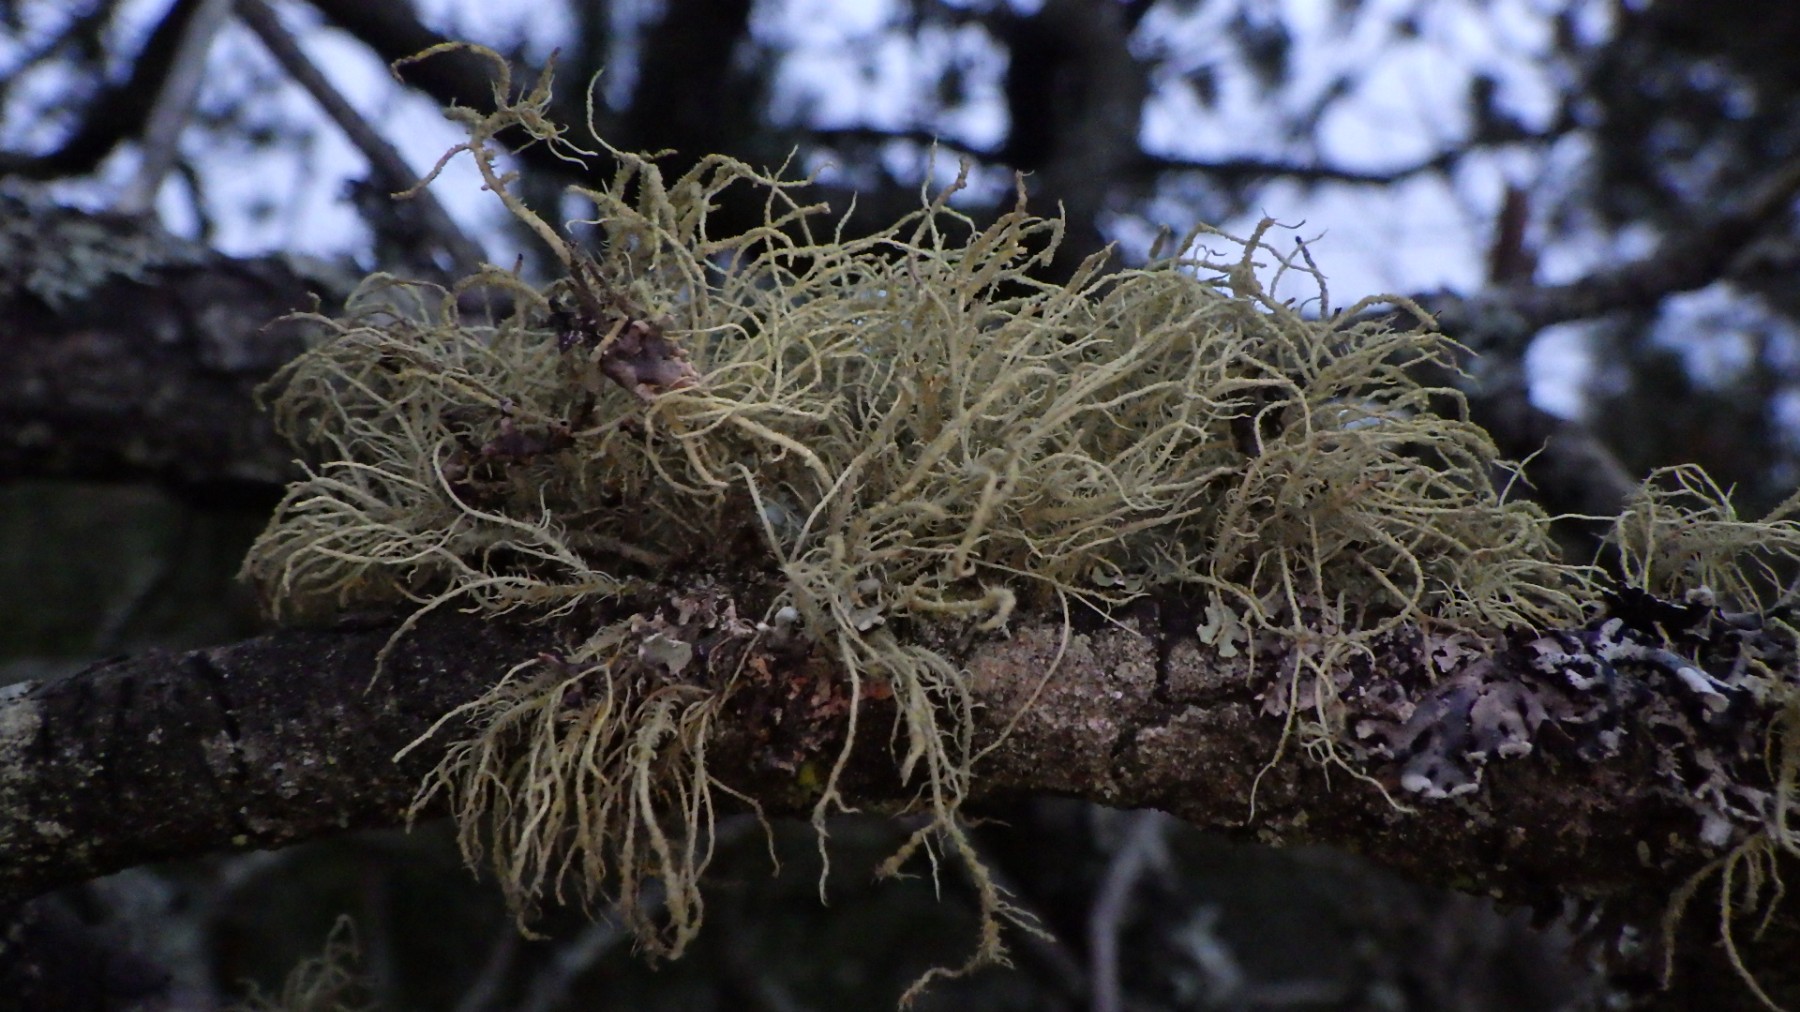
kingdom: Fungi
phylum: Ascomycota
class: Lecanoromycetes
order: Lecanorales
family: Parmeliaceae
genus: Usnea
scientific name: Usnea hirta
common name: liden skæglav
